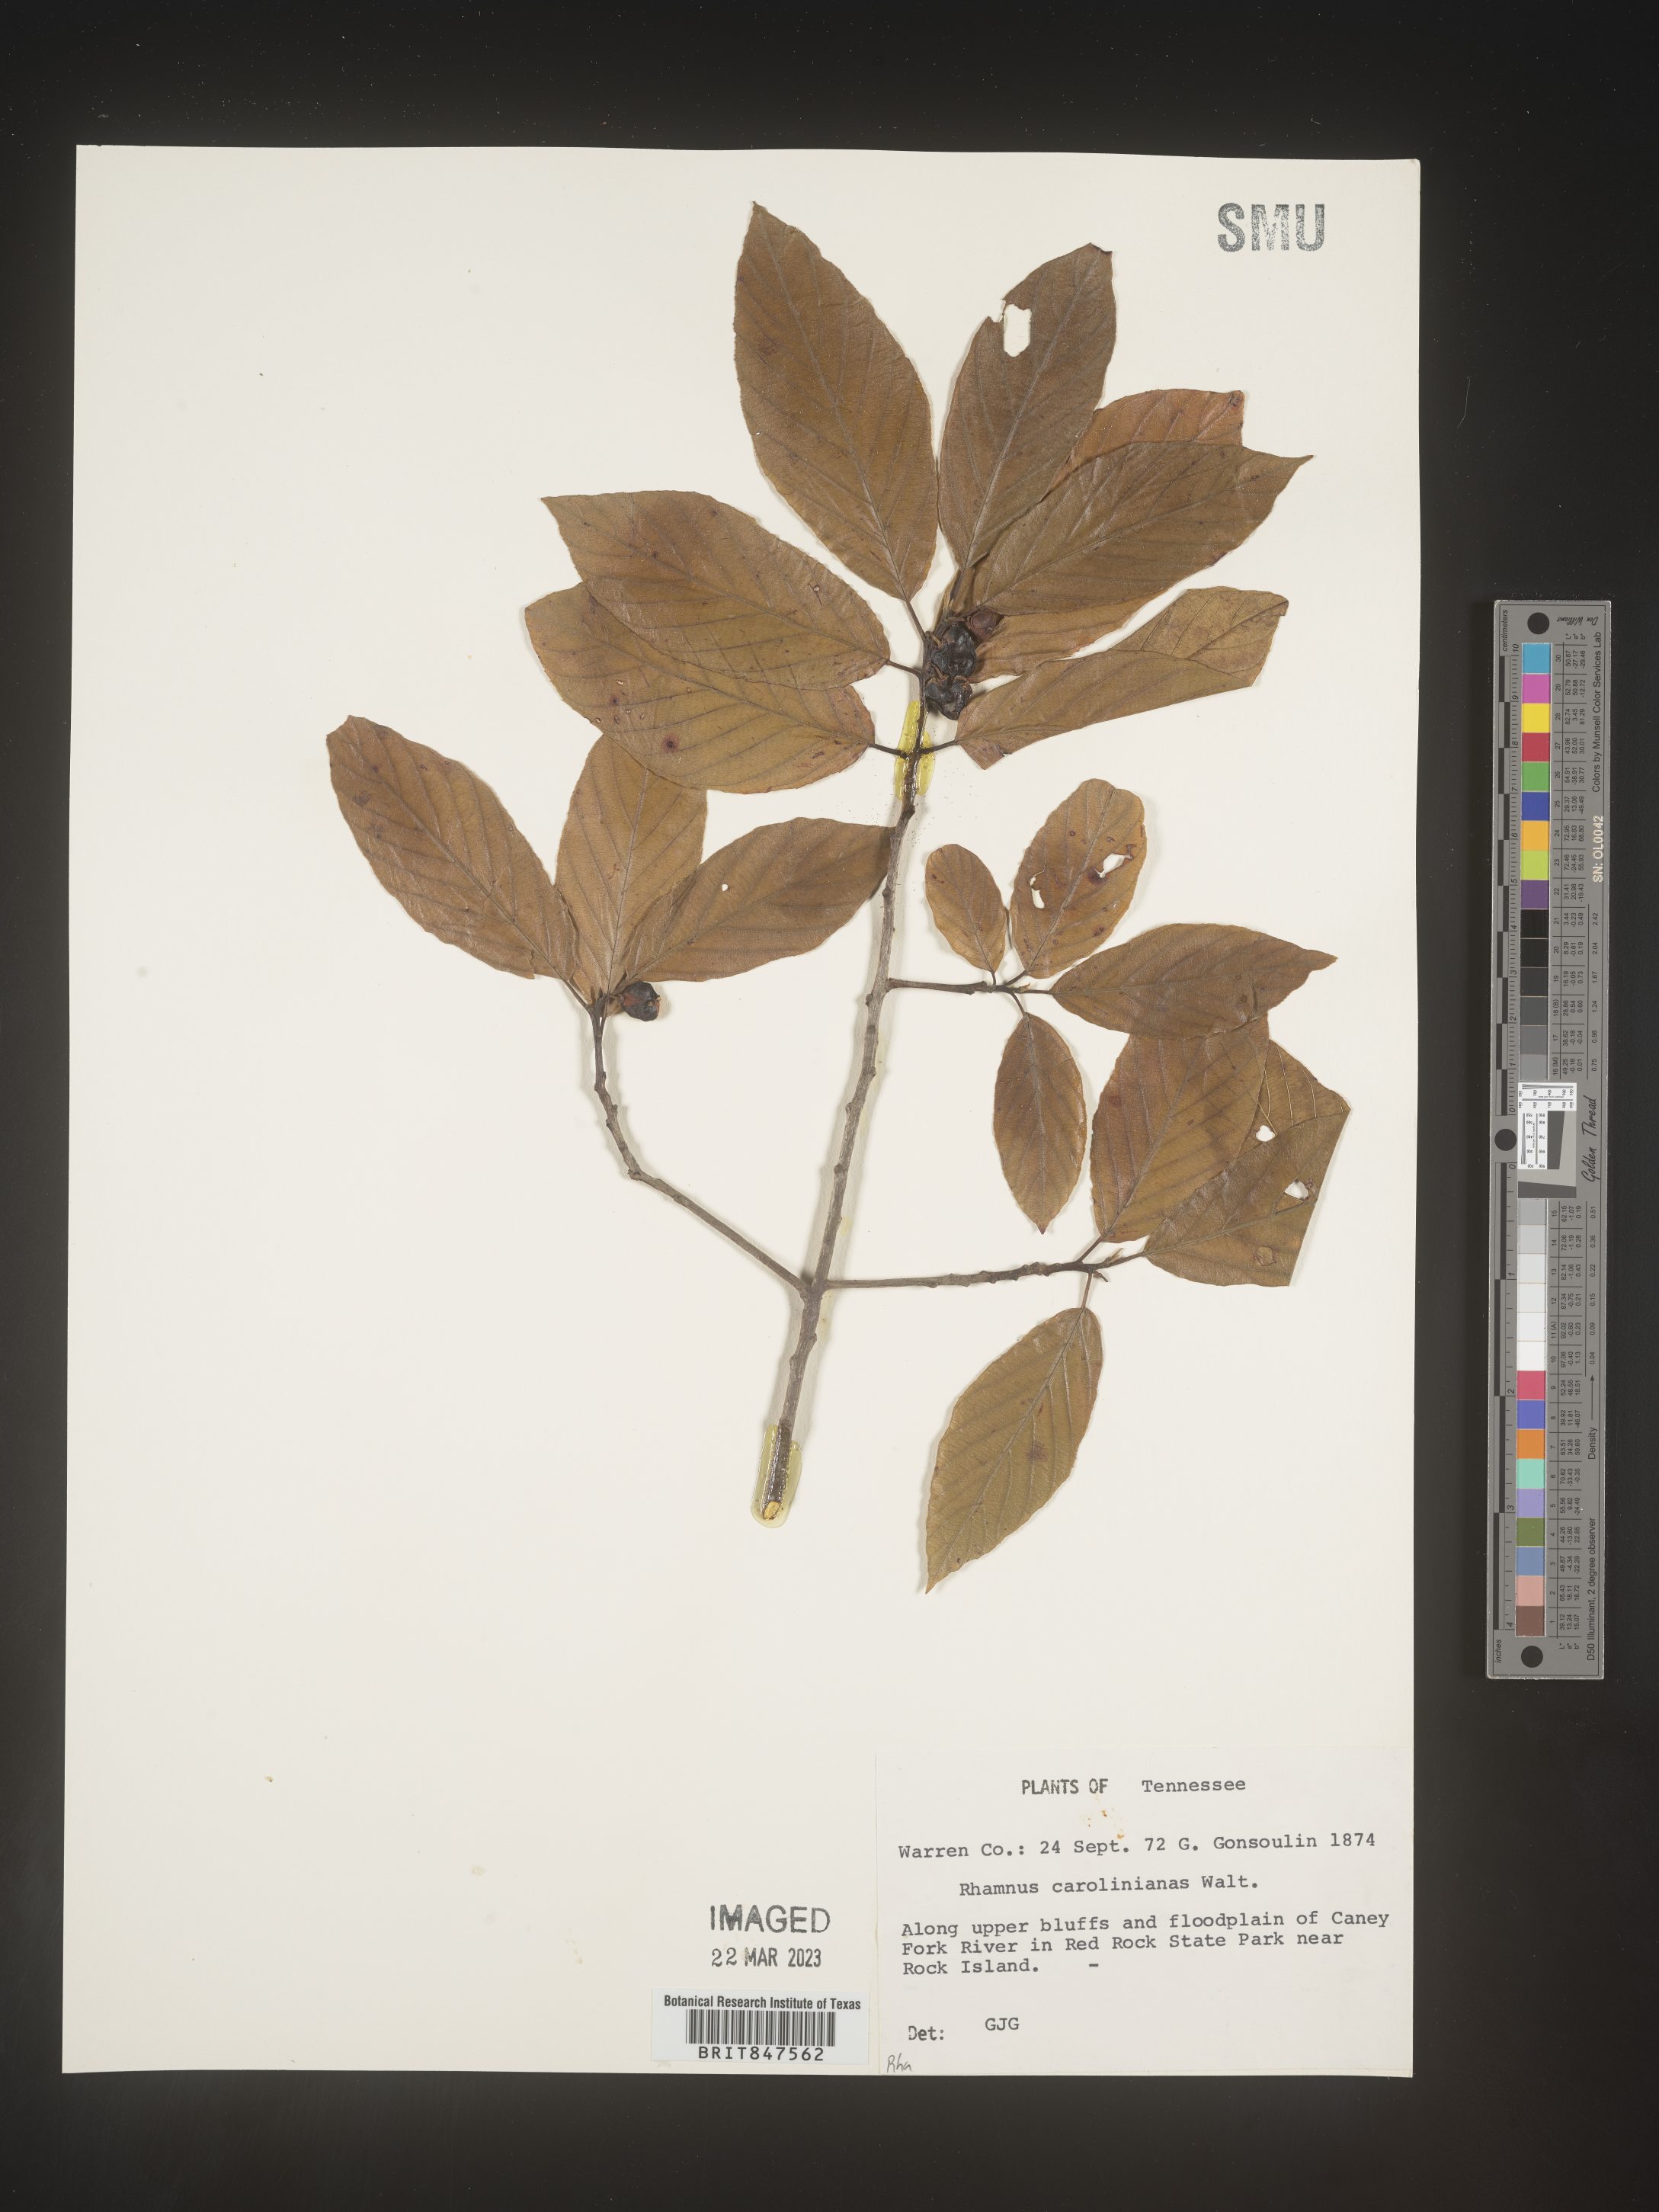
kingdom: Plantae
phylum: Tracheophyta
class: Magnoliopsida
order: Rosales
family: Rhamnaceae
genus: Frangula
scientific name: Frangula caroliniana
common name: Carolina buckthorn
